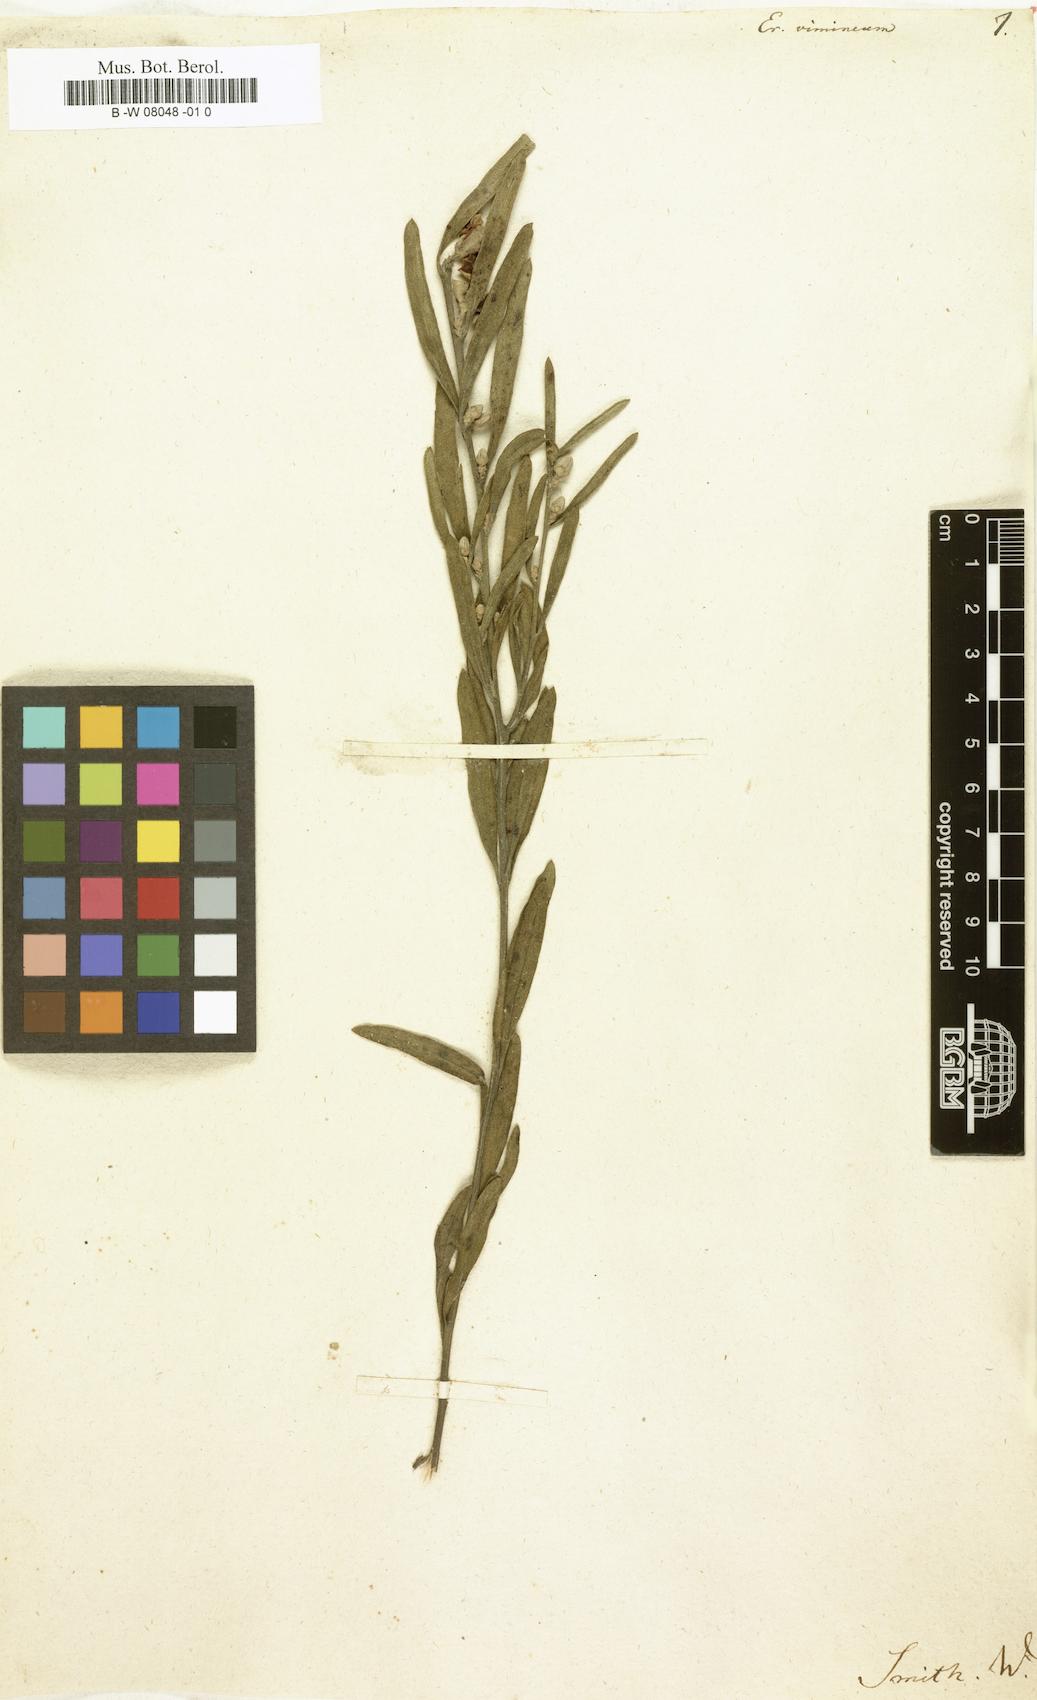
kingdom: Plantae
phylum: Tracheophyta
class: Magnoliopsida
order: Sapindales
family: Rutaceae
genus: Eriostemon
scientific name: Eriostemon
